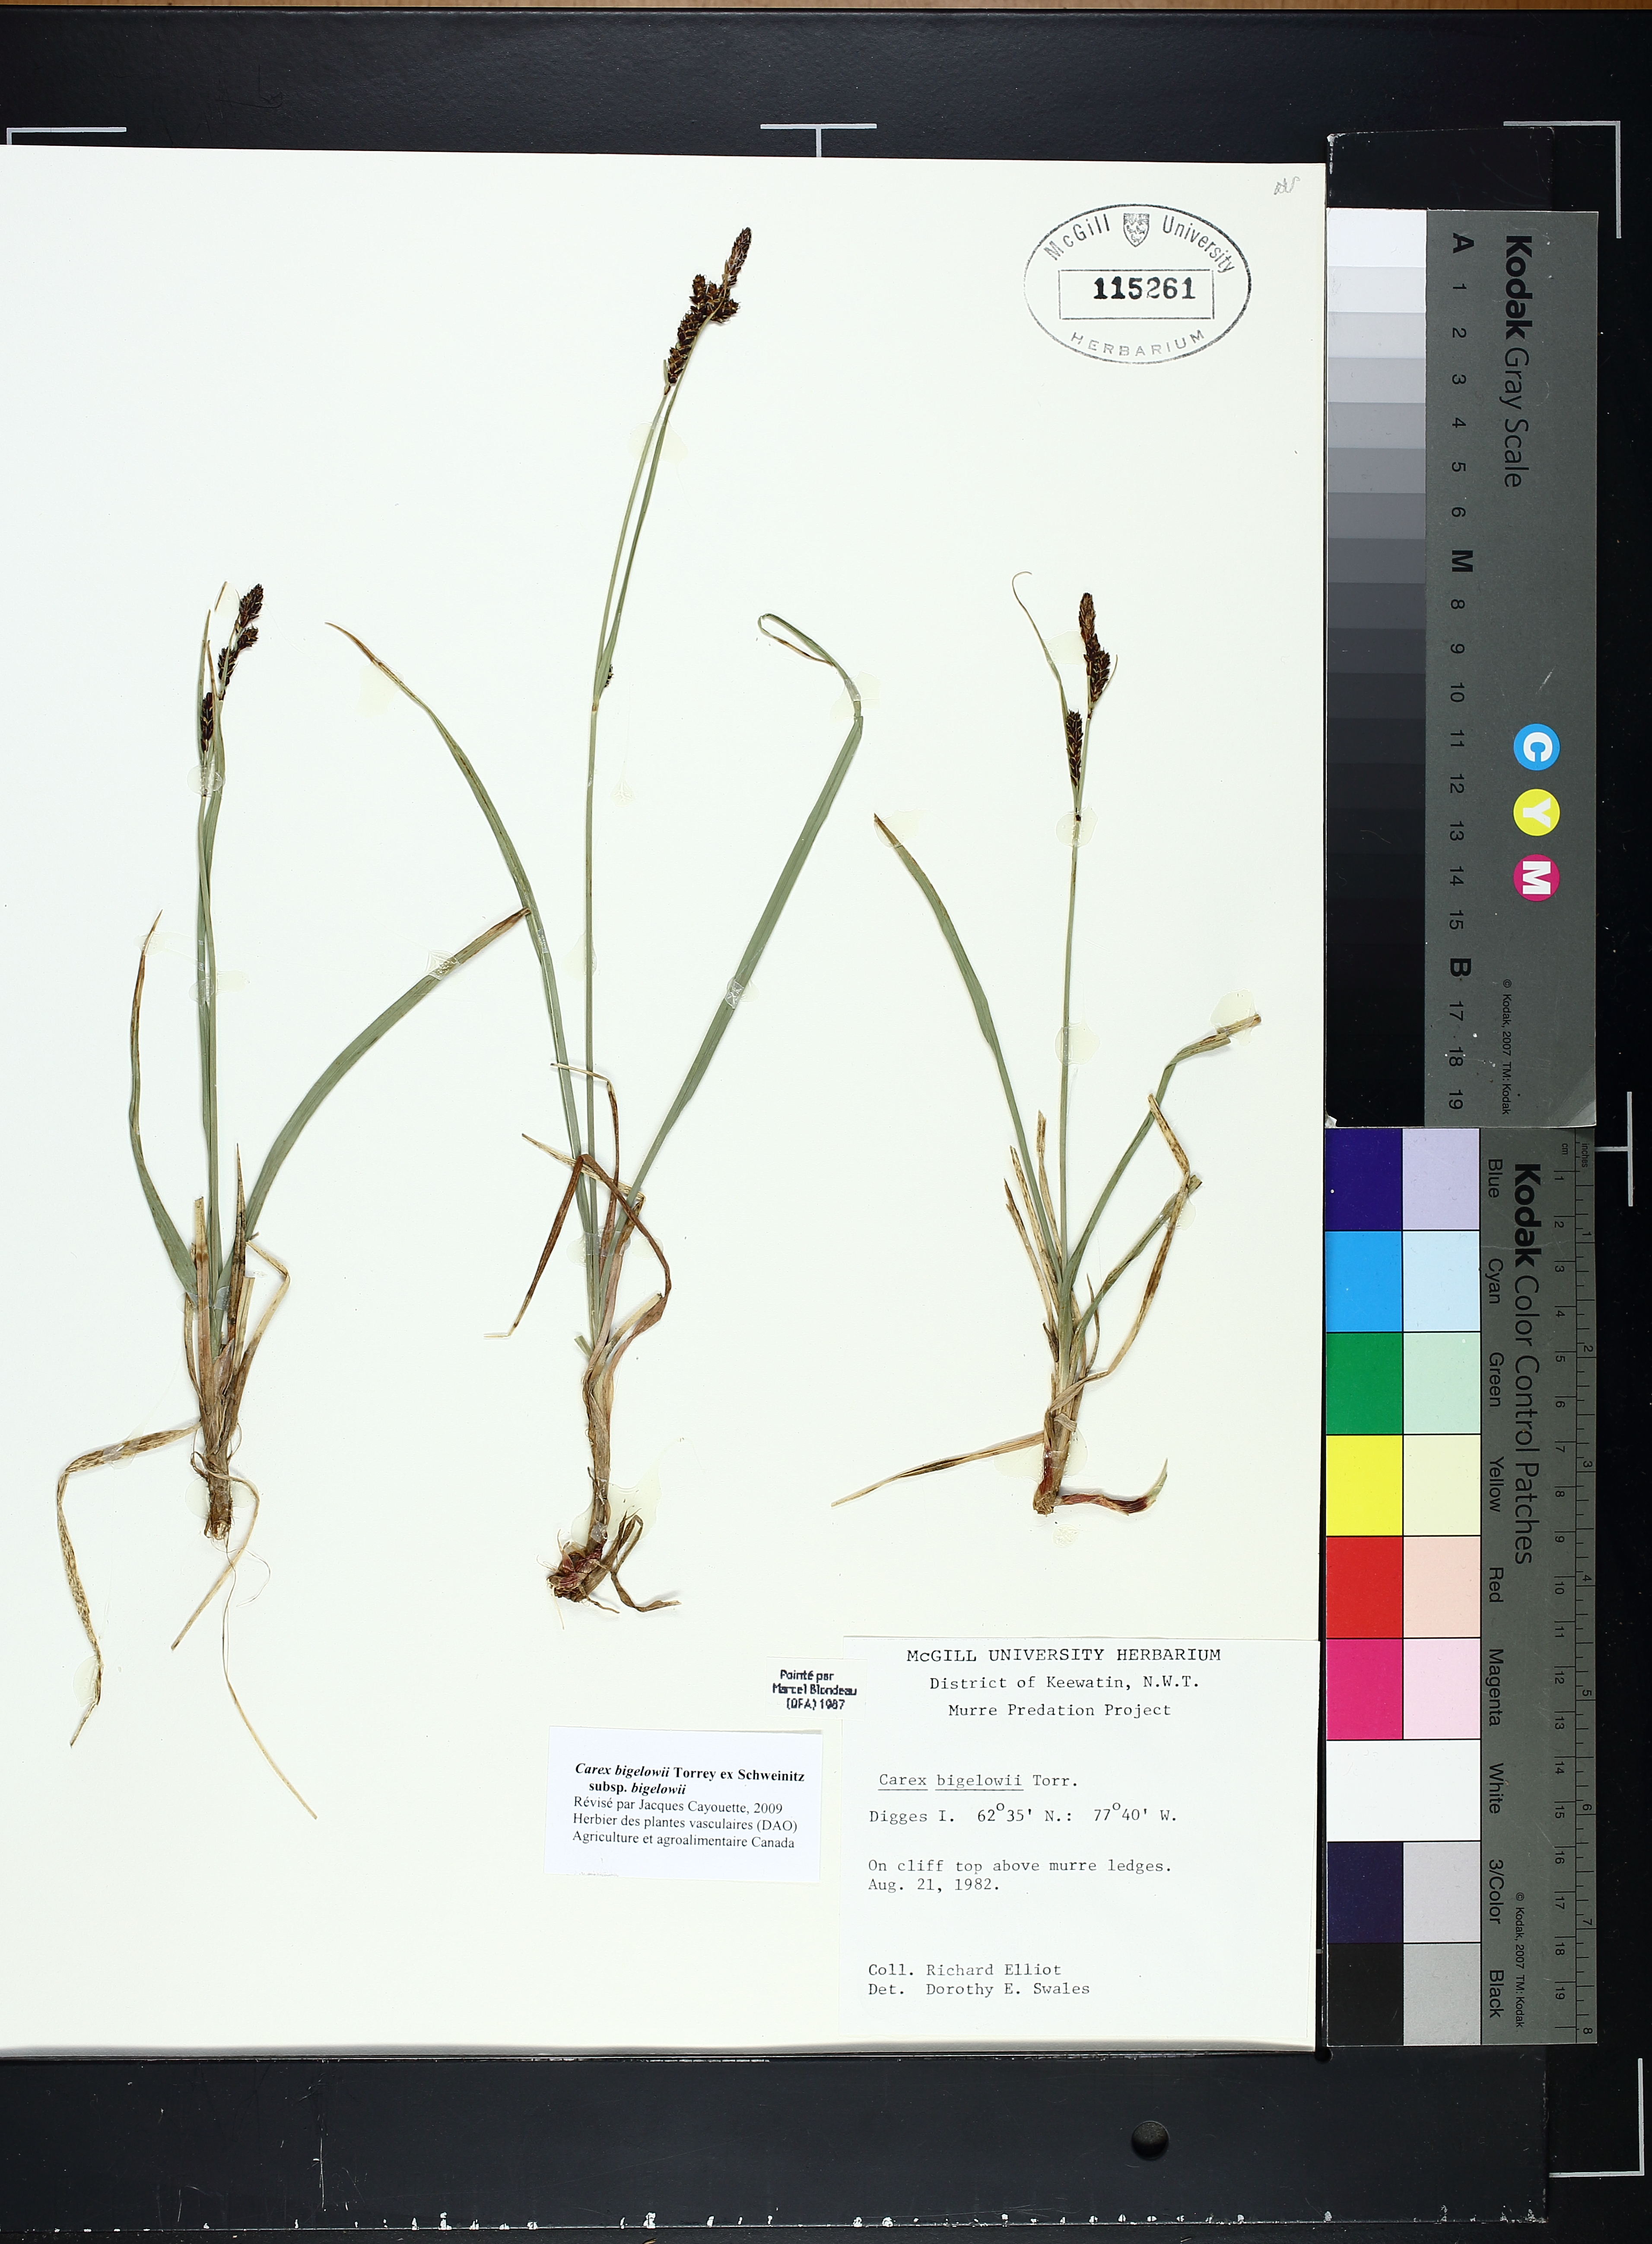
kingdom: Plantae
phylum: Tracheophyta
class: Liliopsida
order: Poales
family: Cyperaceae
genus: Carex
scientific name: Carex bigelowii
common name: Stiff sedge
